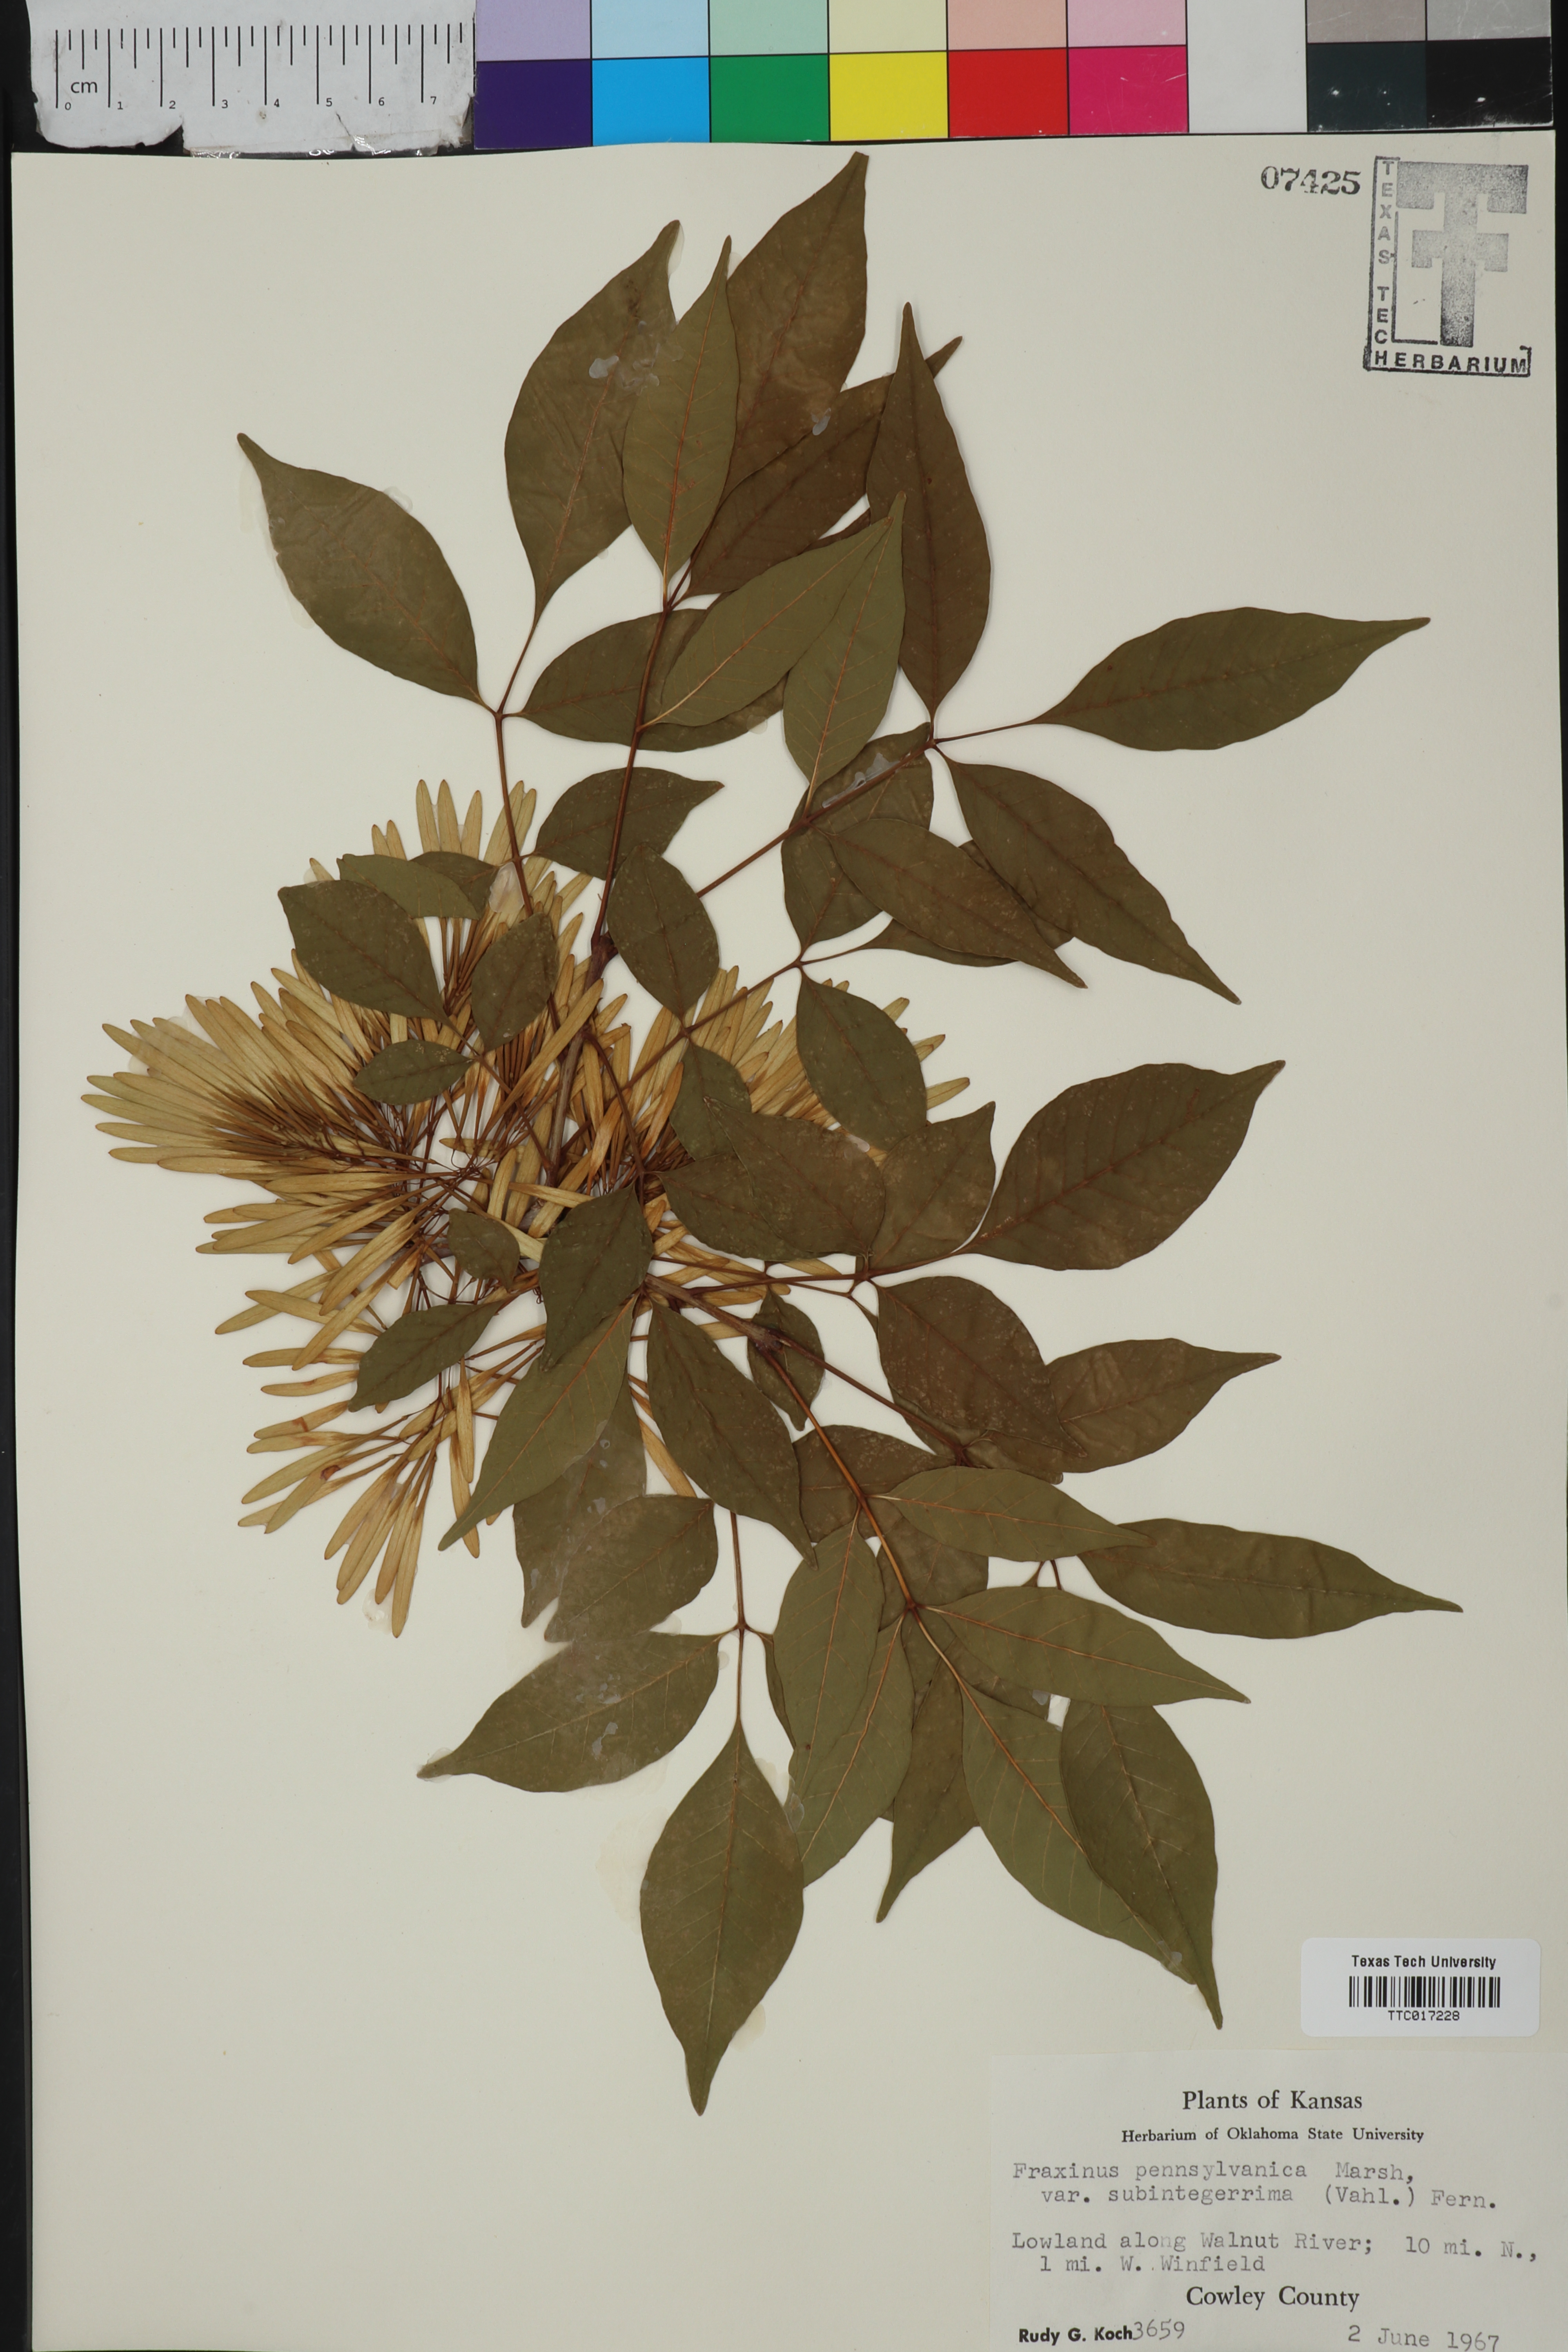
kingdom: Plantae
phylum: Tracheophyta
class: Magnoliopsida
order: Lamiales
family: Oleaceae
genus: Fraxinus
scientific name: Fraxinus pennsylvanica
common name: Green ash
